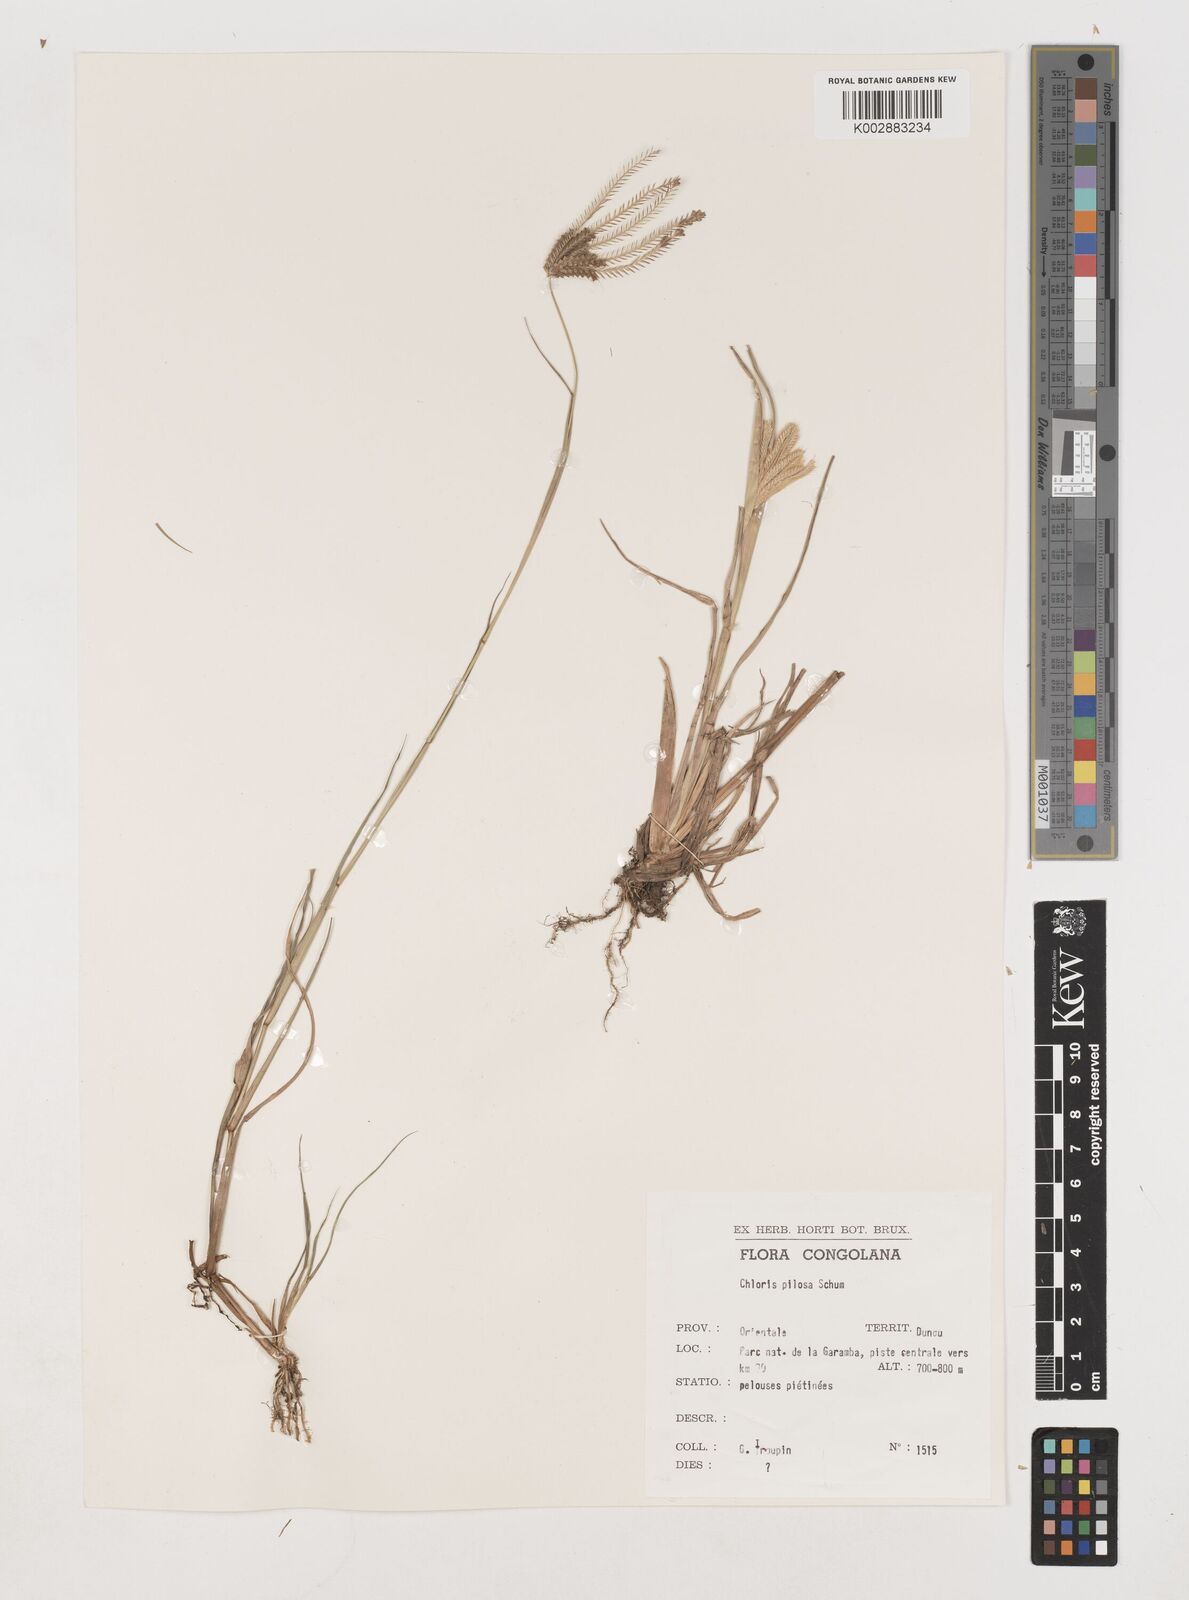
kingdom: Plantae
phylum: Tracheophyta
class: Liliopsida
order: Poales
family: Poaceae
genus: Chloris
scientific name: Chloris pilosa
